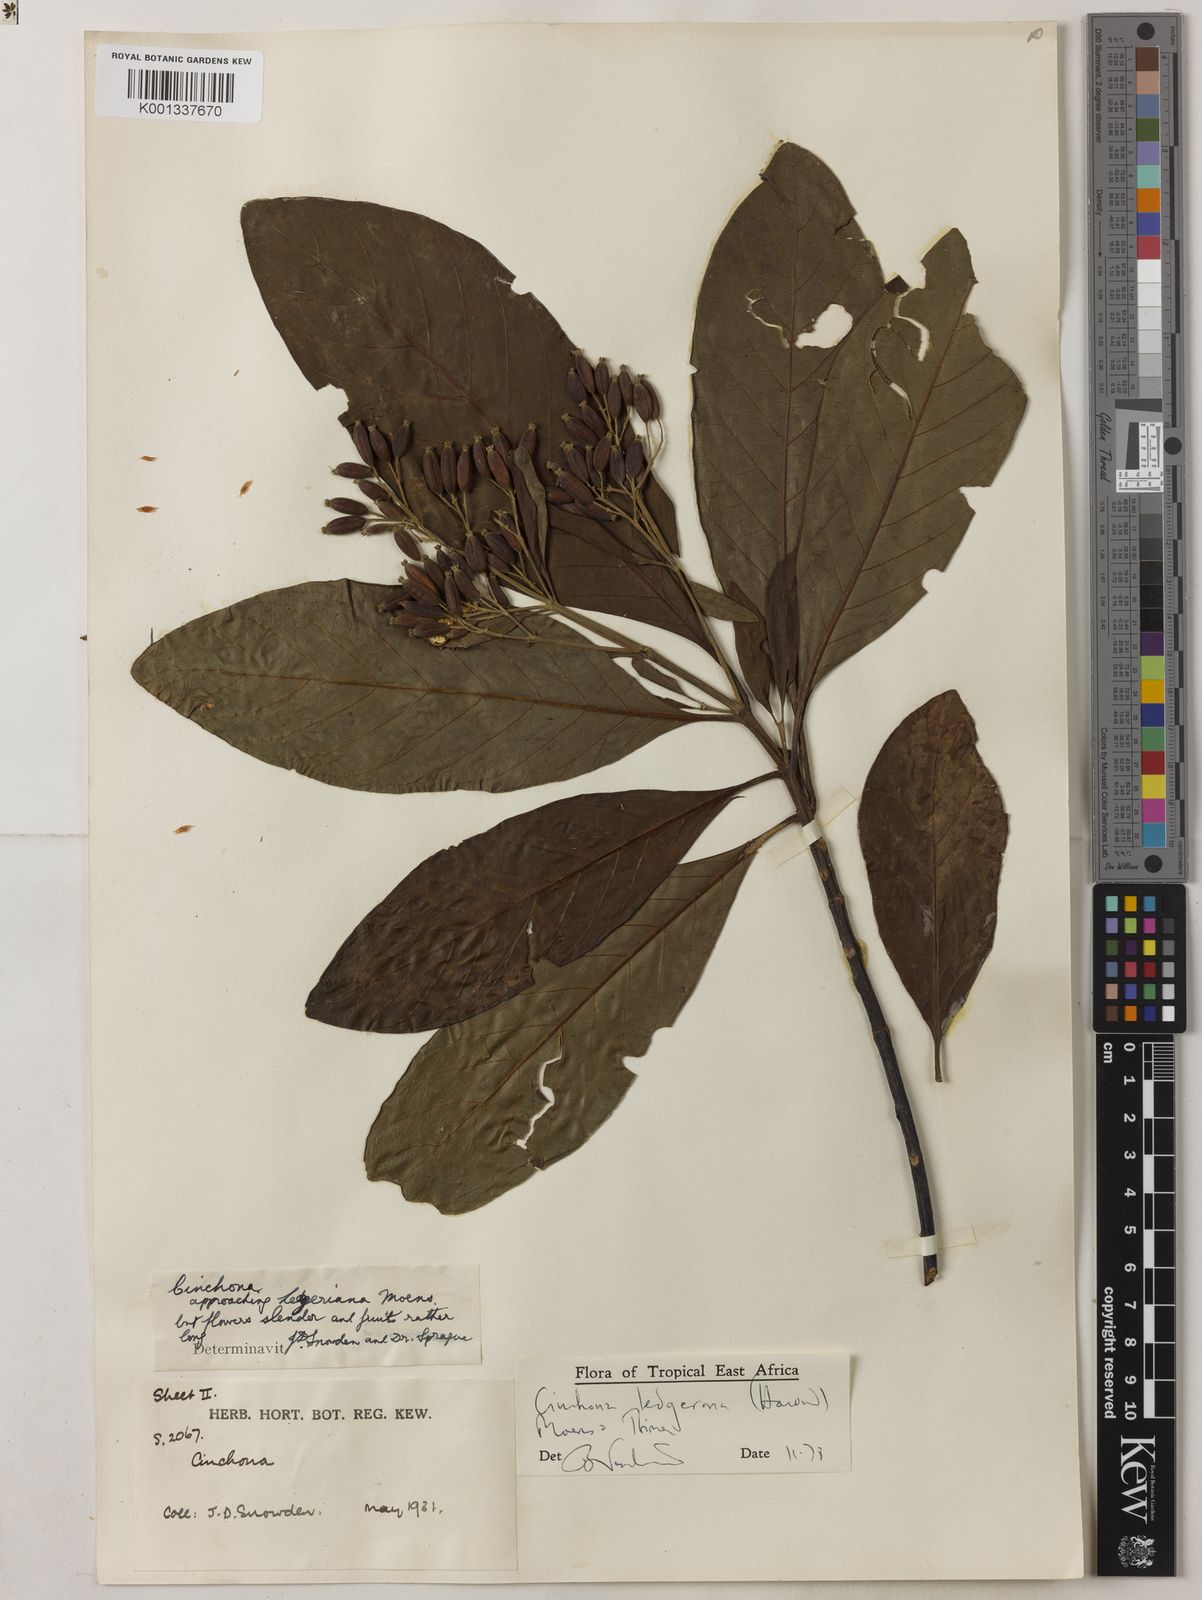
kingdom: Plantae
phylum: Tracheophyta
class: Magnoliopsida
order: Gentianales
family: Rubiaceae
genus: Cinchona
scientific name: Cinchona calisaya
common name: Ledgerbark
